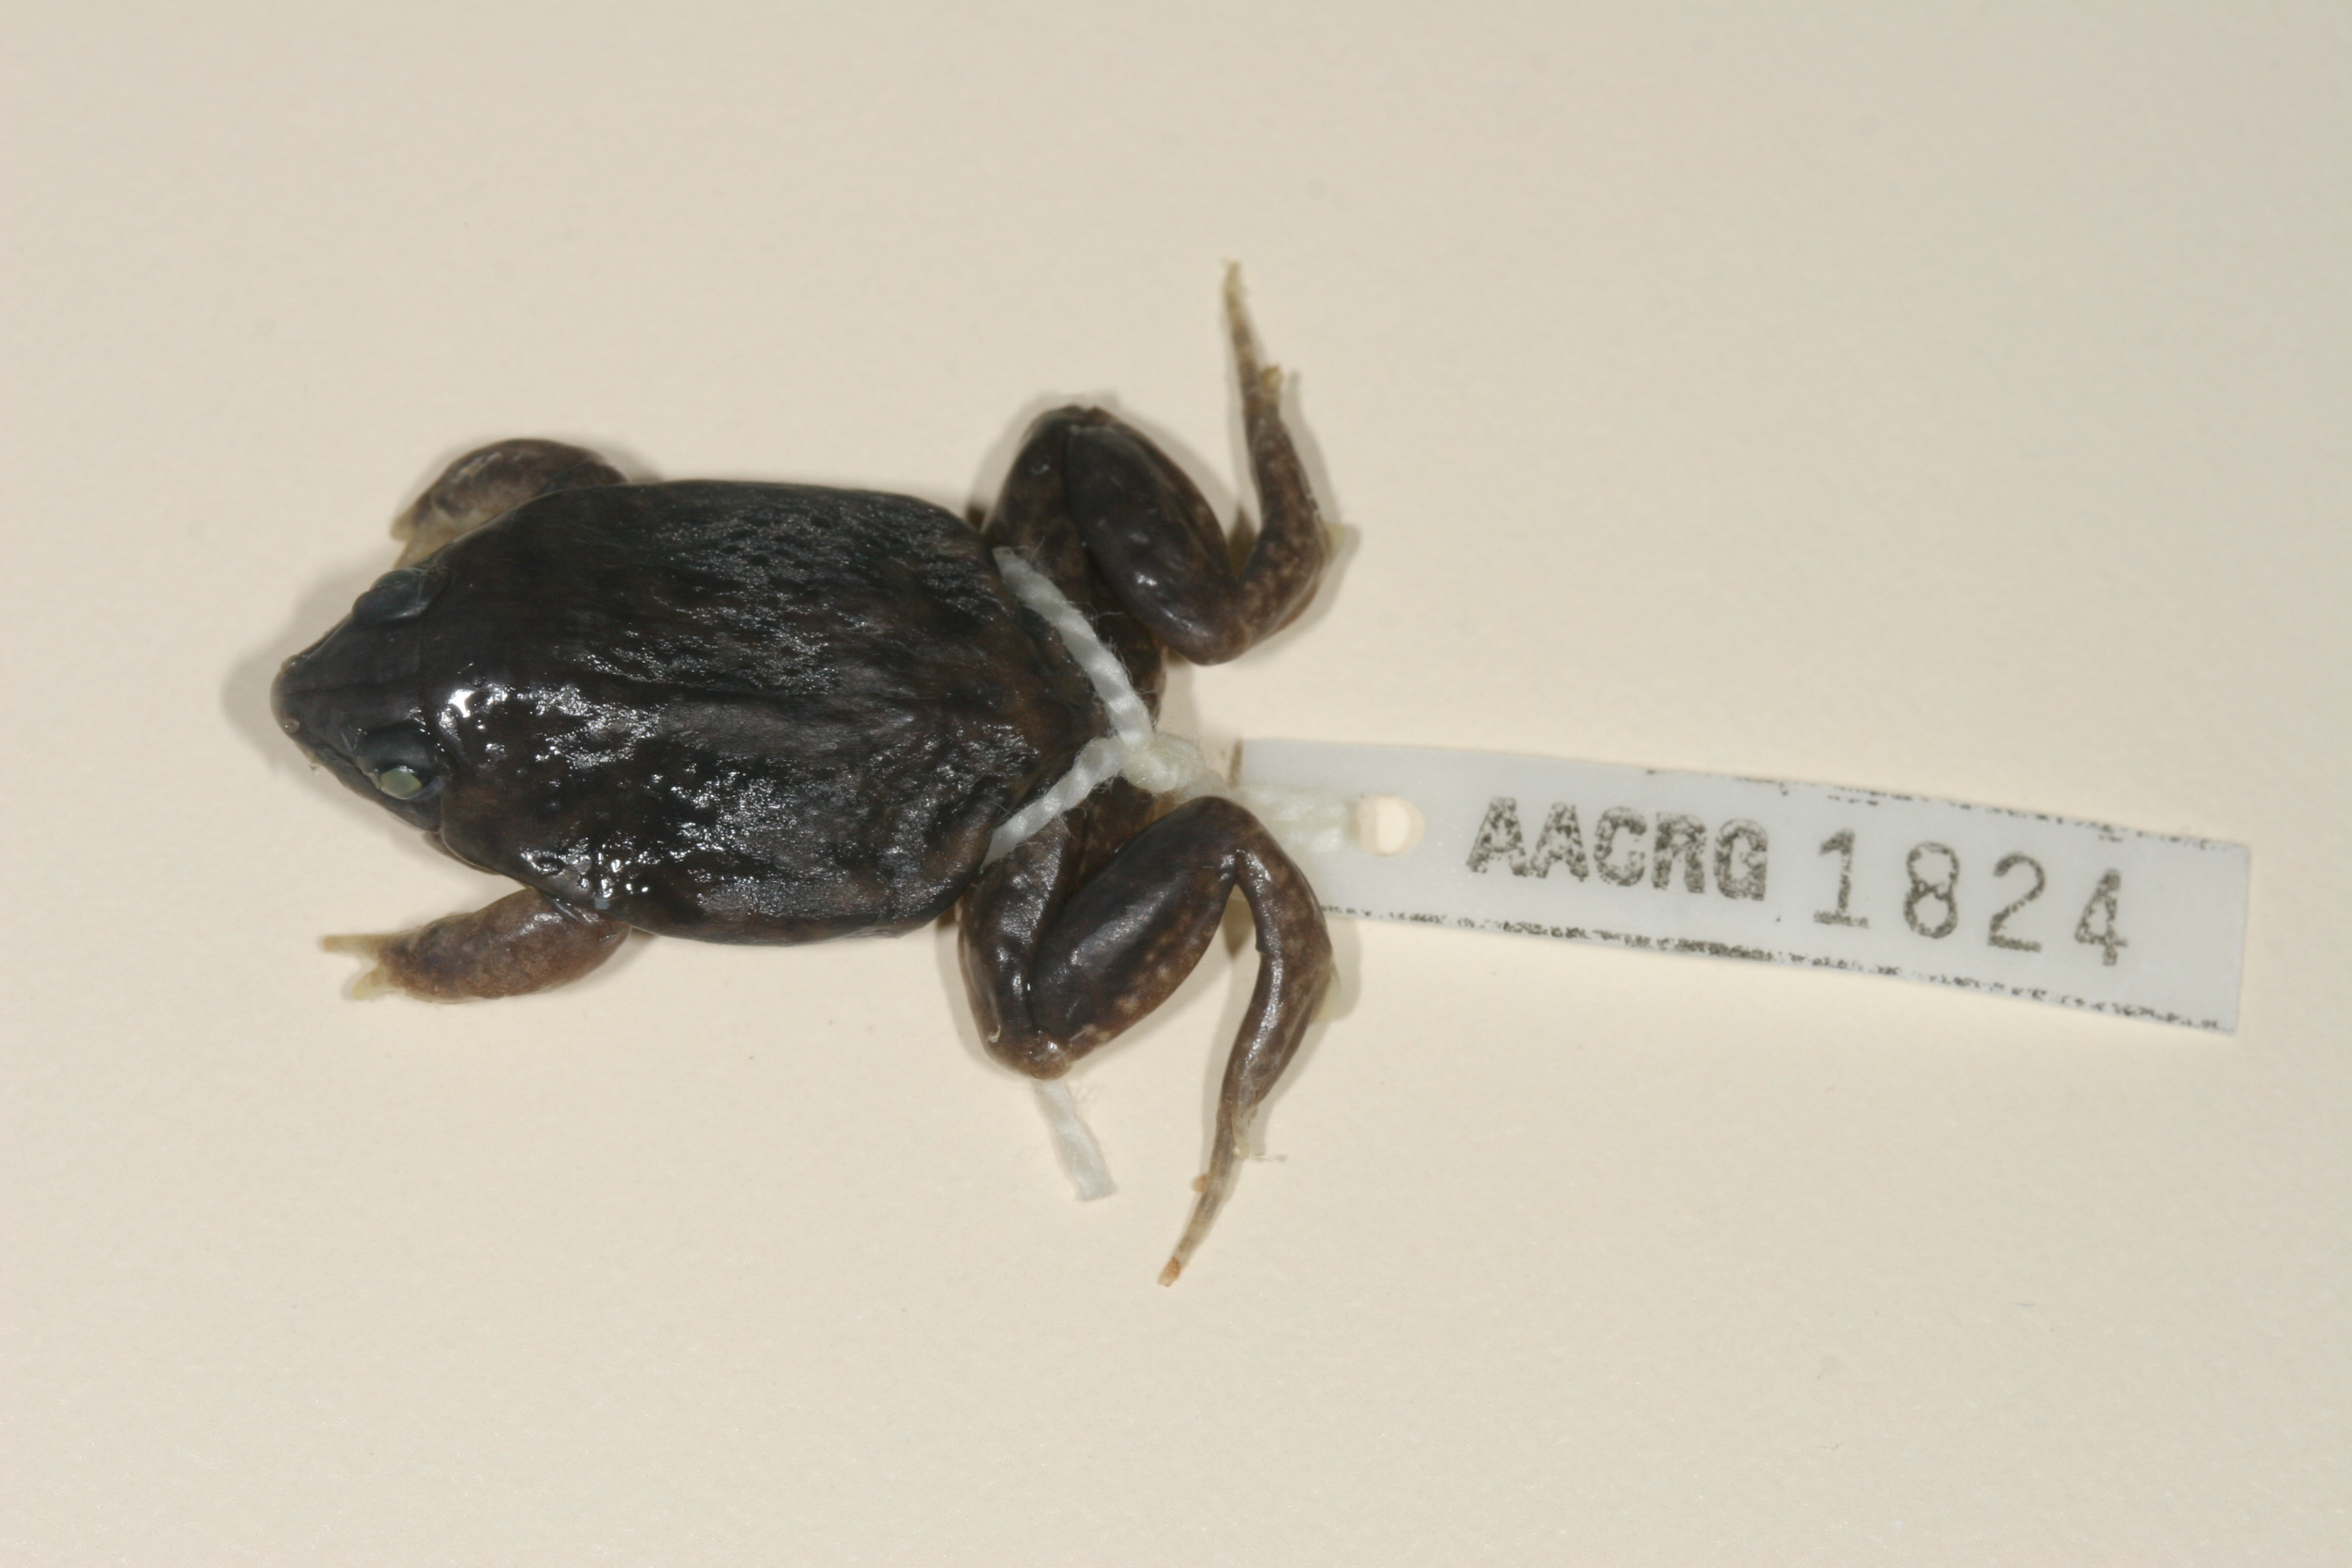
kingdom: Animalia
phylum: Chordata
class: Amphibia
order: Anura
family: Hemisotidae
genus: Hemisus
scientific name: Hemisus marmoratus
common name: Mottled shovel-nosed frog
